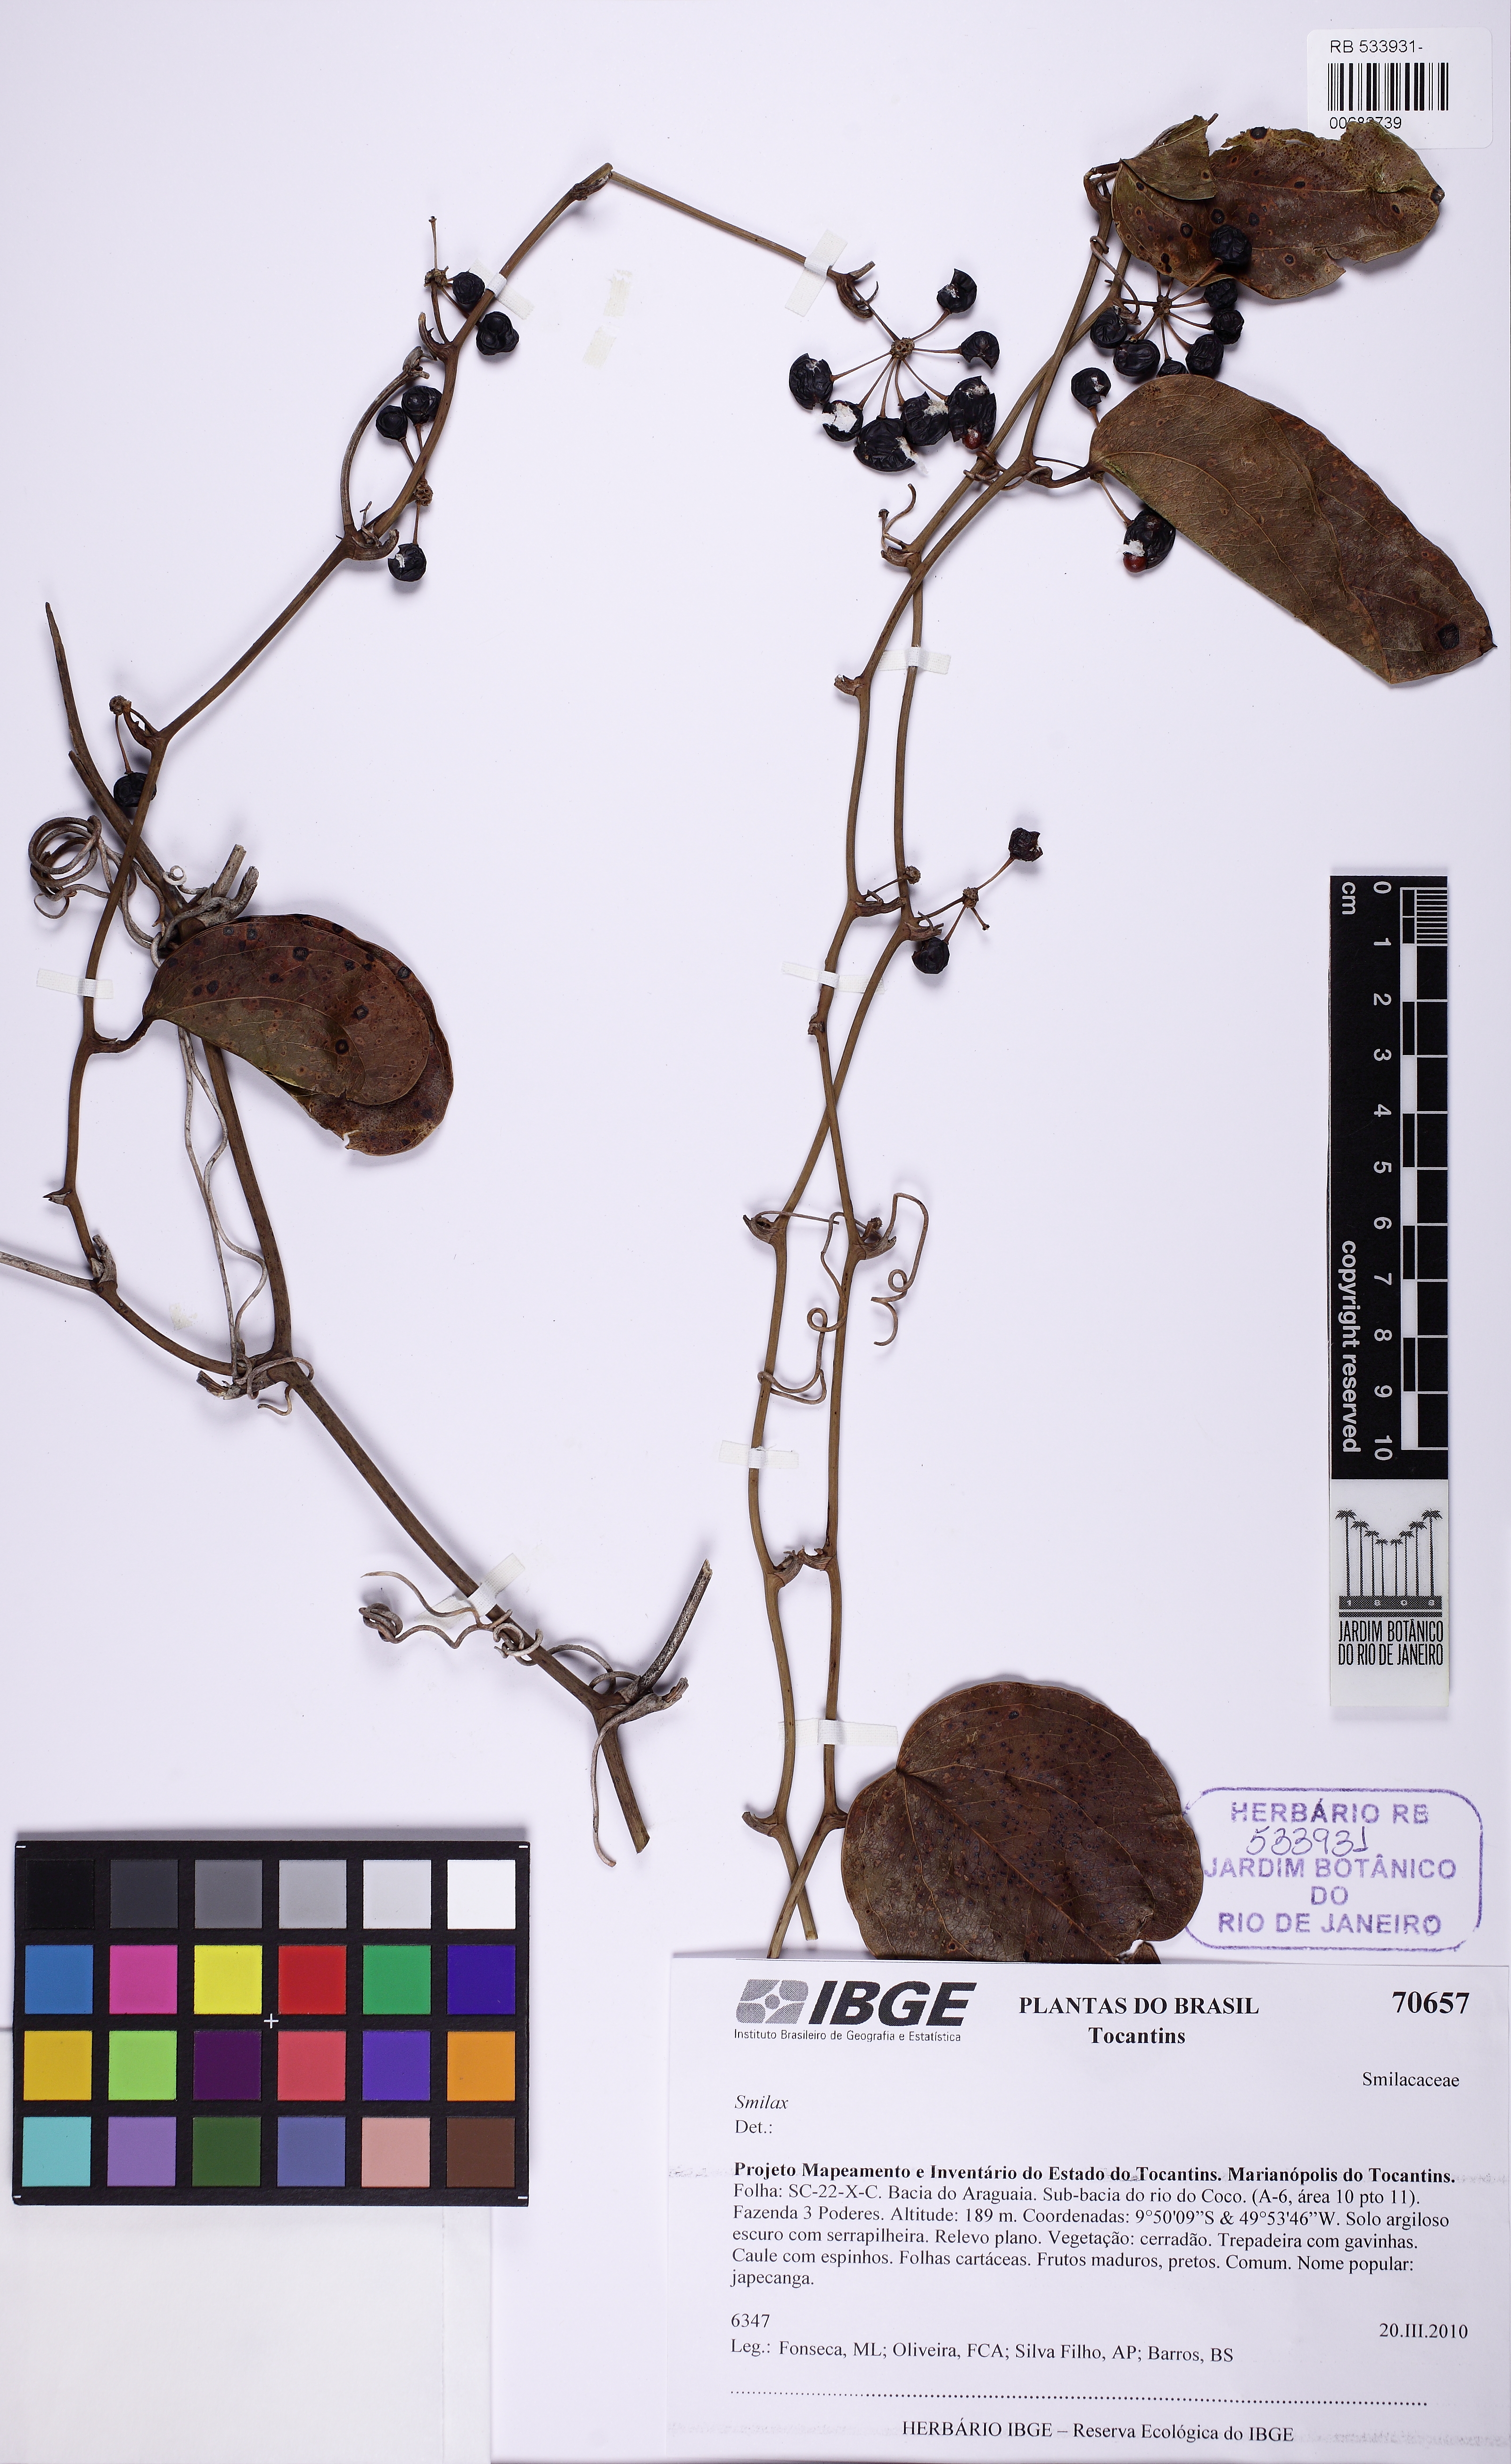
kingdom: Plantae
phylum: Tracheophyta
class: Liliopsida
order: Liliales
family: Smilacaceae
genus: Smilax
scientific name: Smilax
